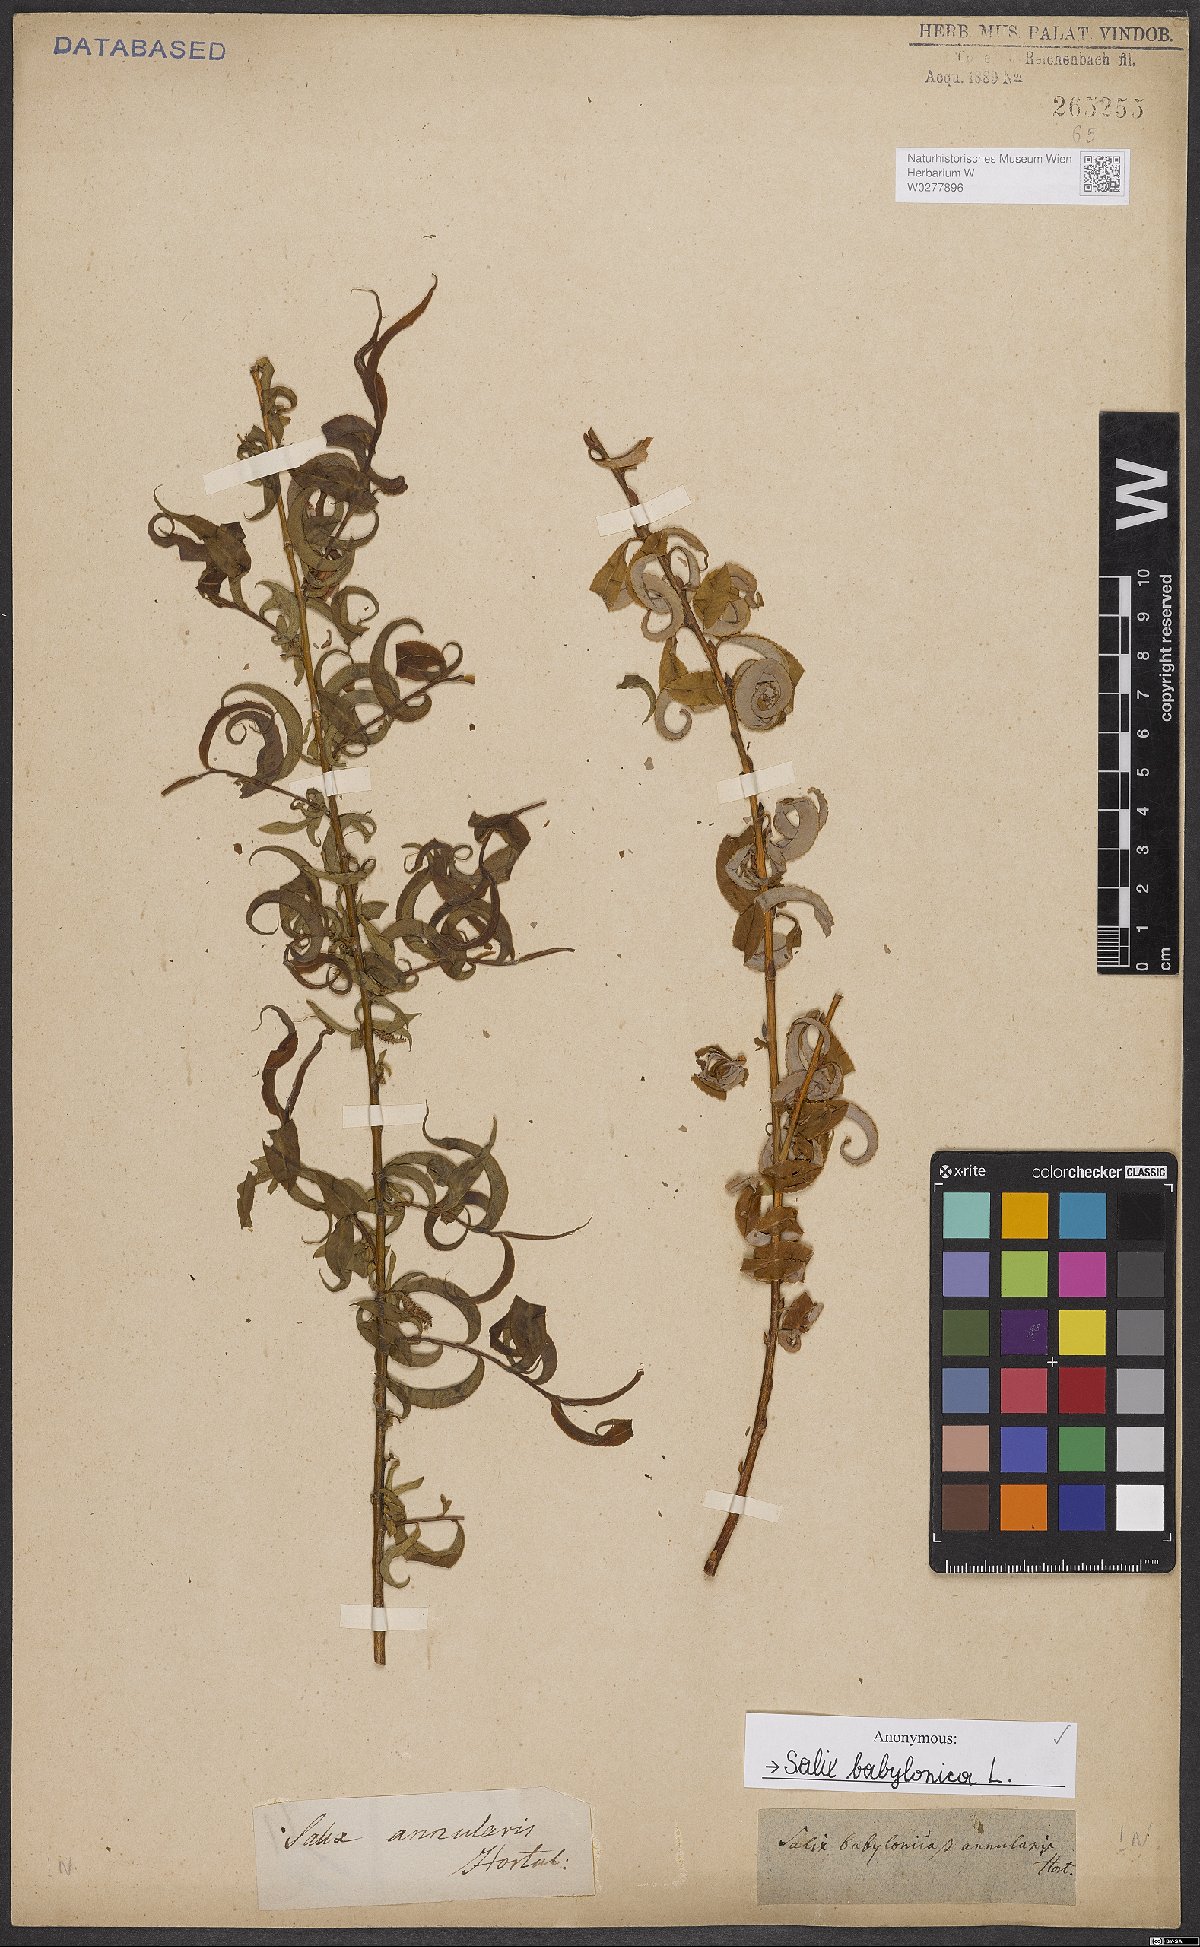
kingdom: Plantae
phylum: Tracheophyta
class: Magnoliopsida
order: Malpighiales
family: Salicaceae
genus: Salix
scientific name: Salix babylonica
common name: Weeping willow
